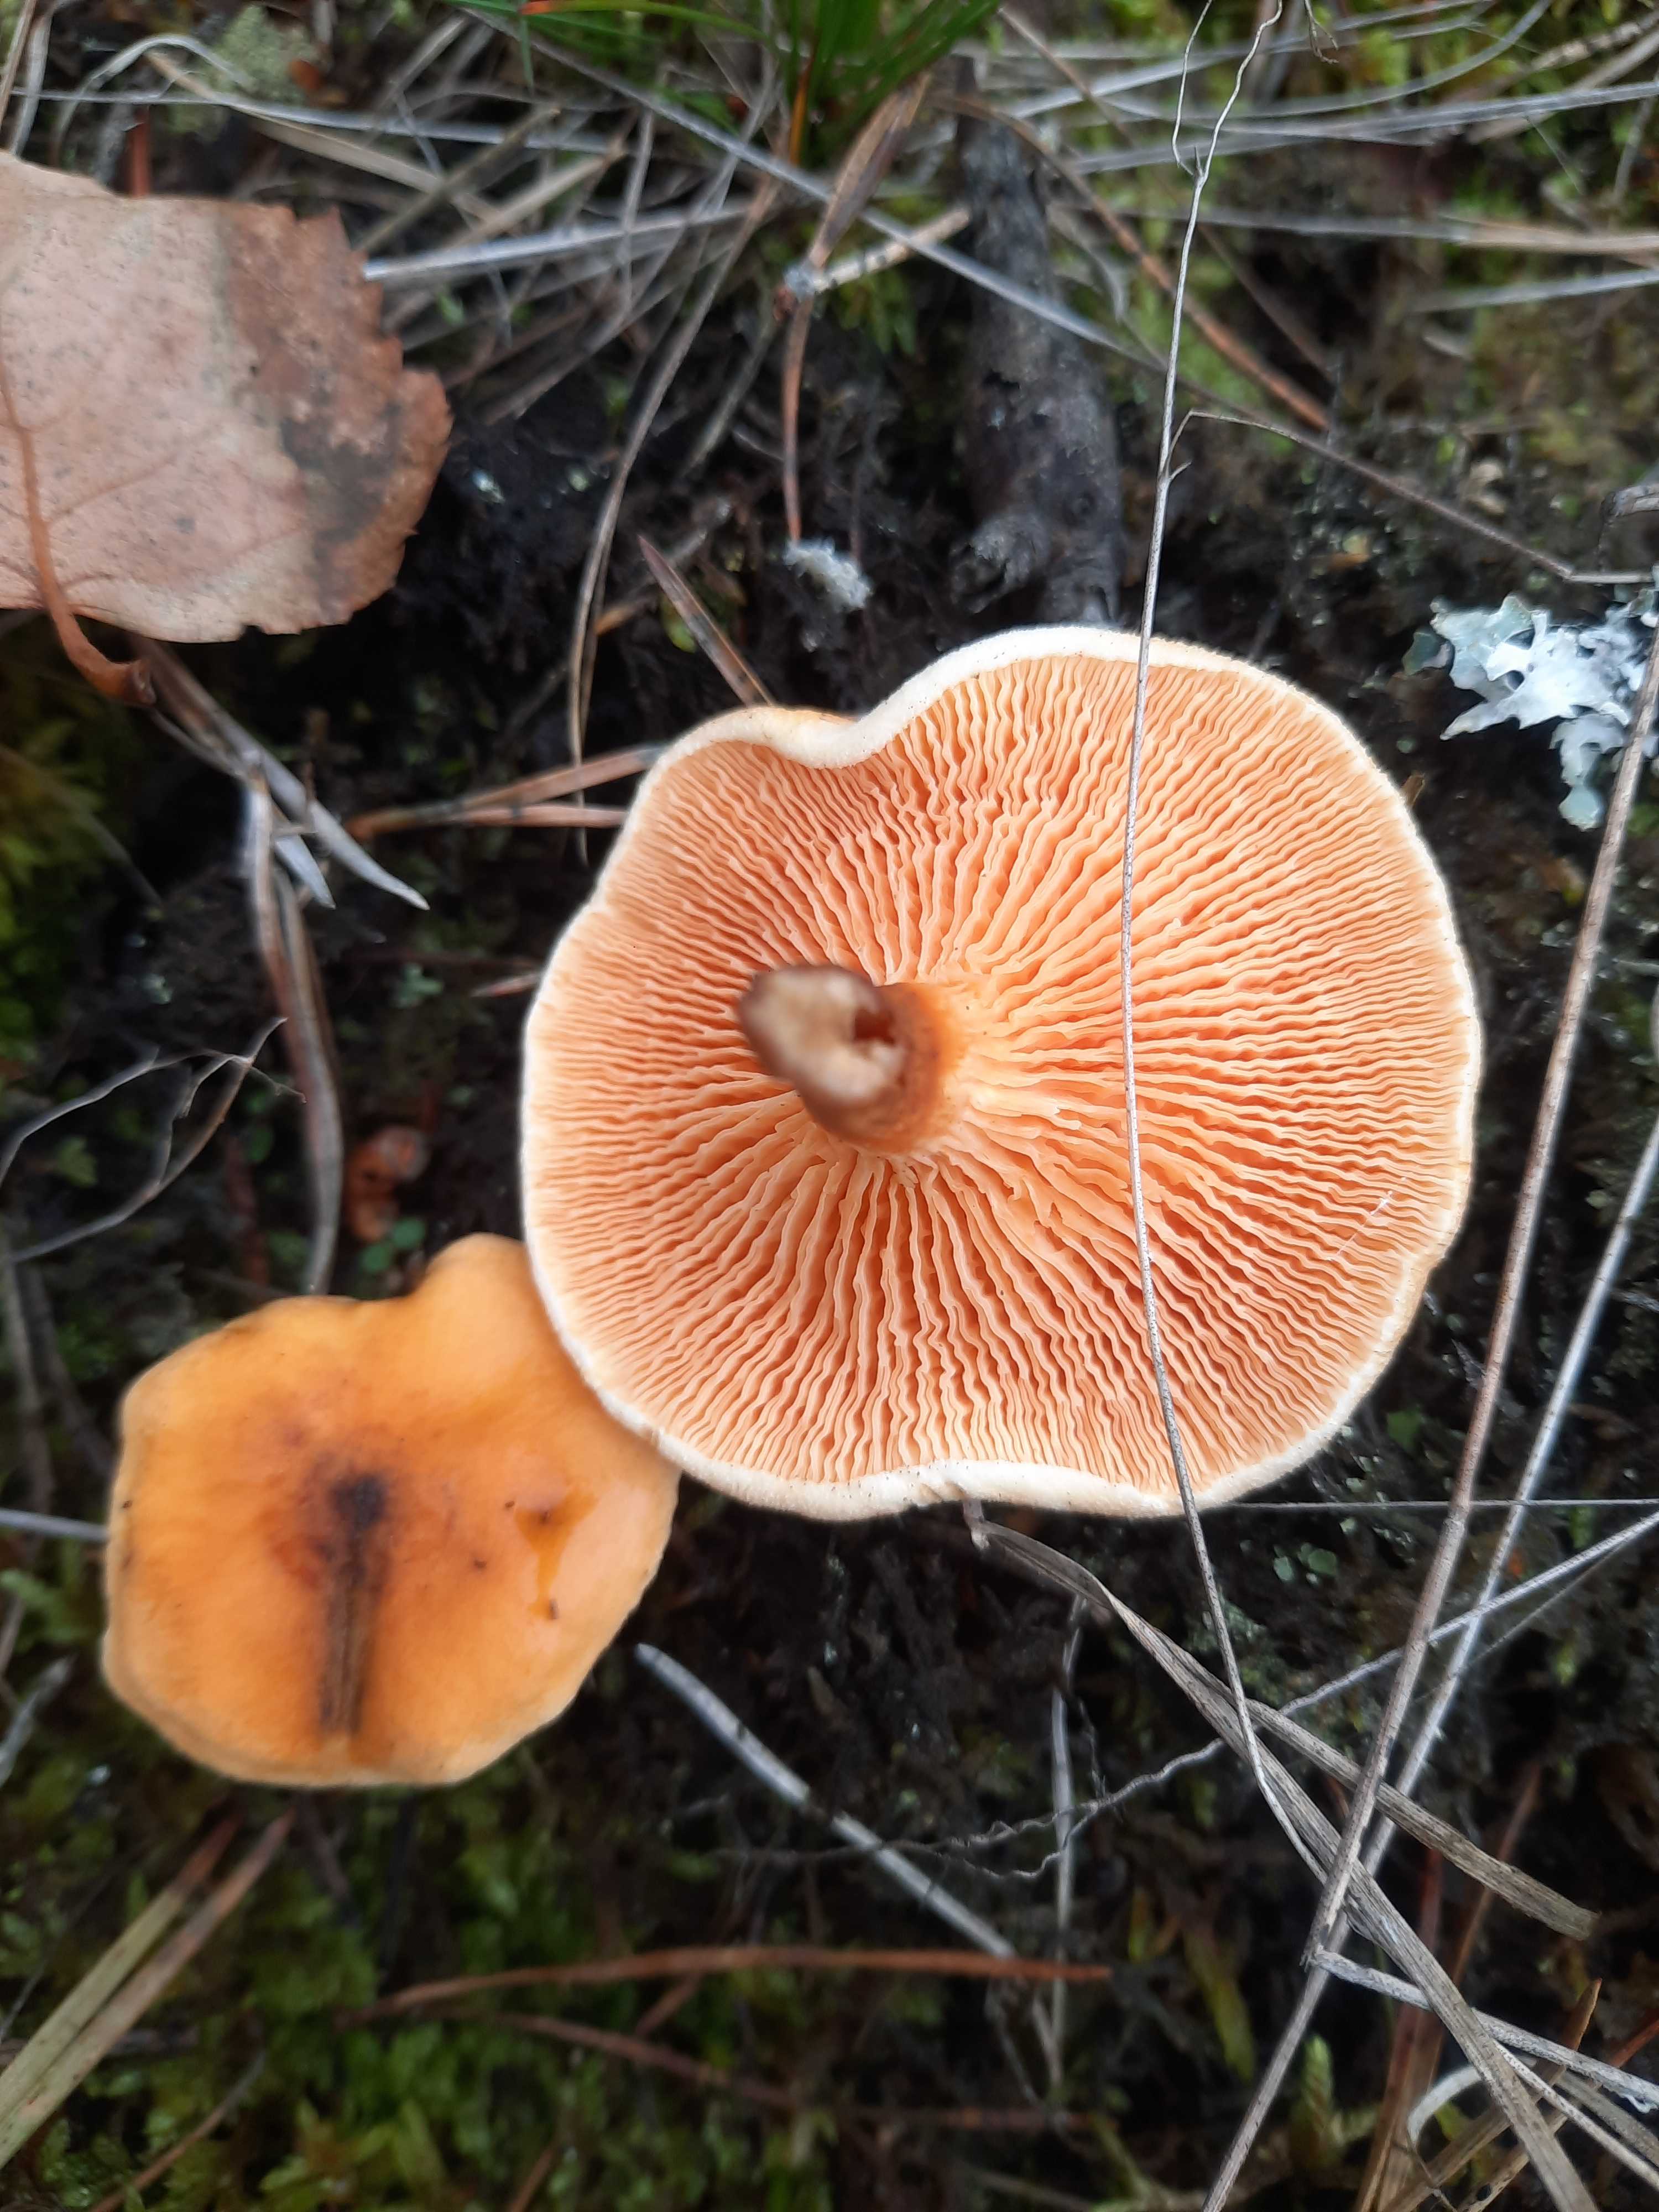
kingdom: Fungi
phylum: Basidiomycota
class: Agaricomycetes
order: Boletales
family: Hygrophoropsidaceae
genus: Hygrophoropsis
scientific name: Hygrophoropsis aurantiaca
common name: almindelig orangekantarel
